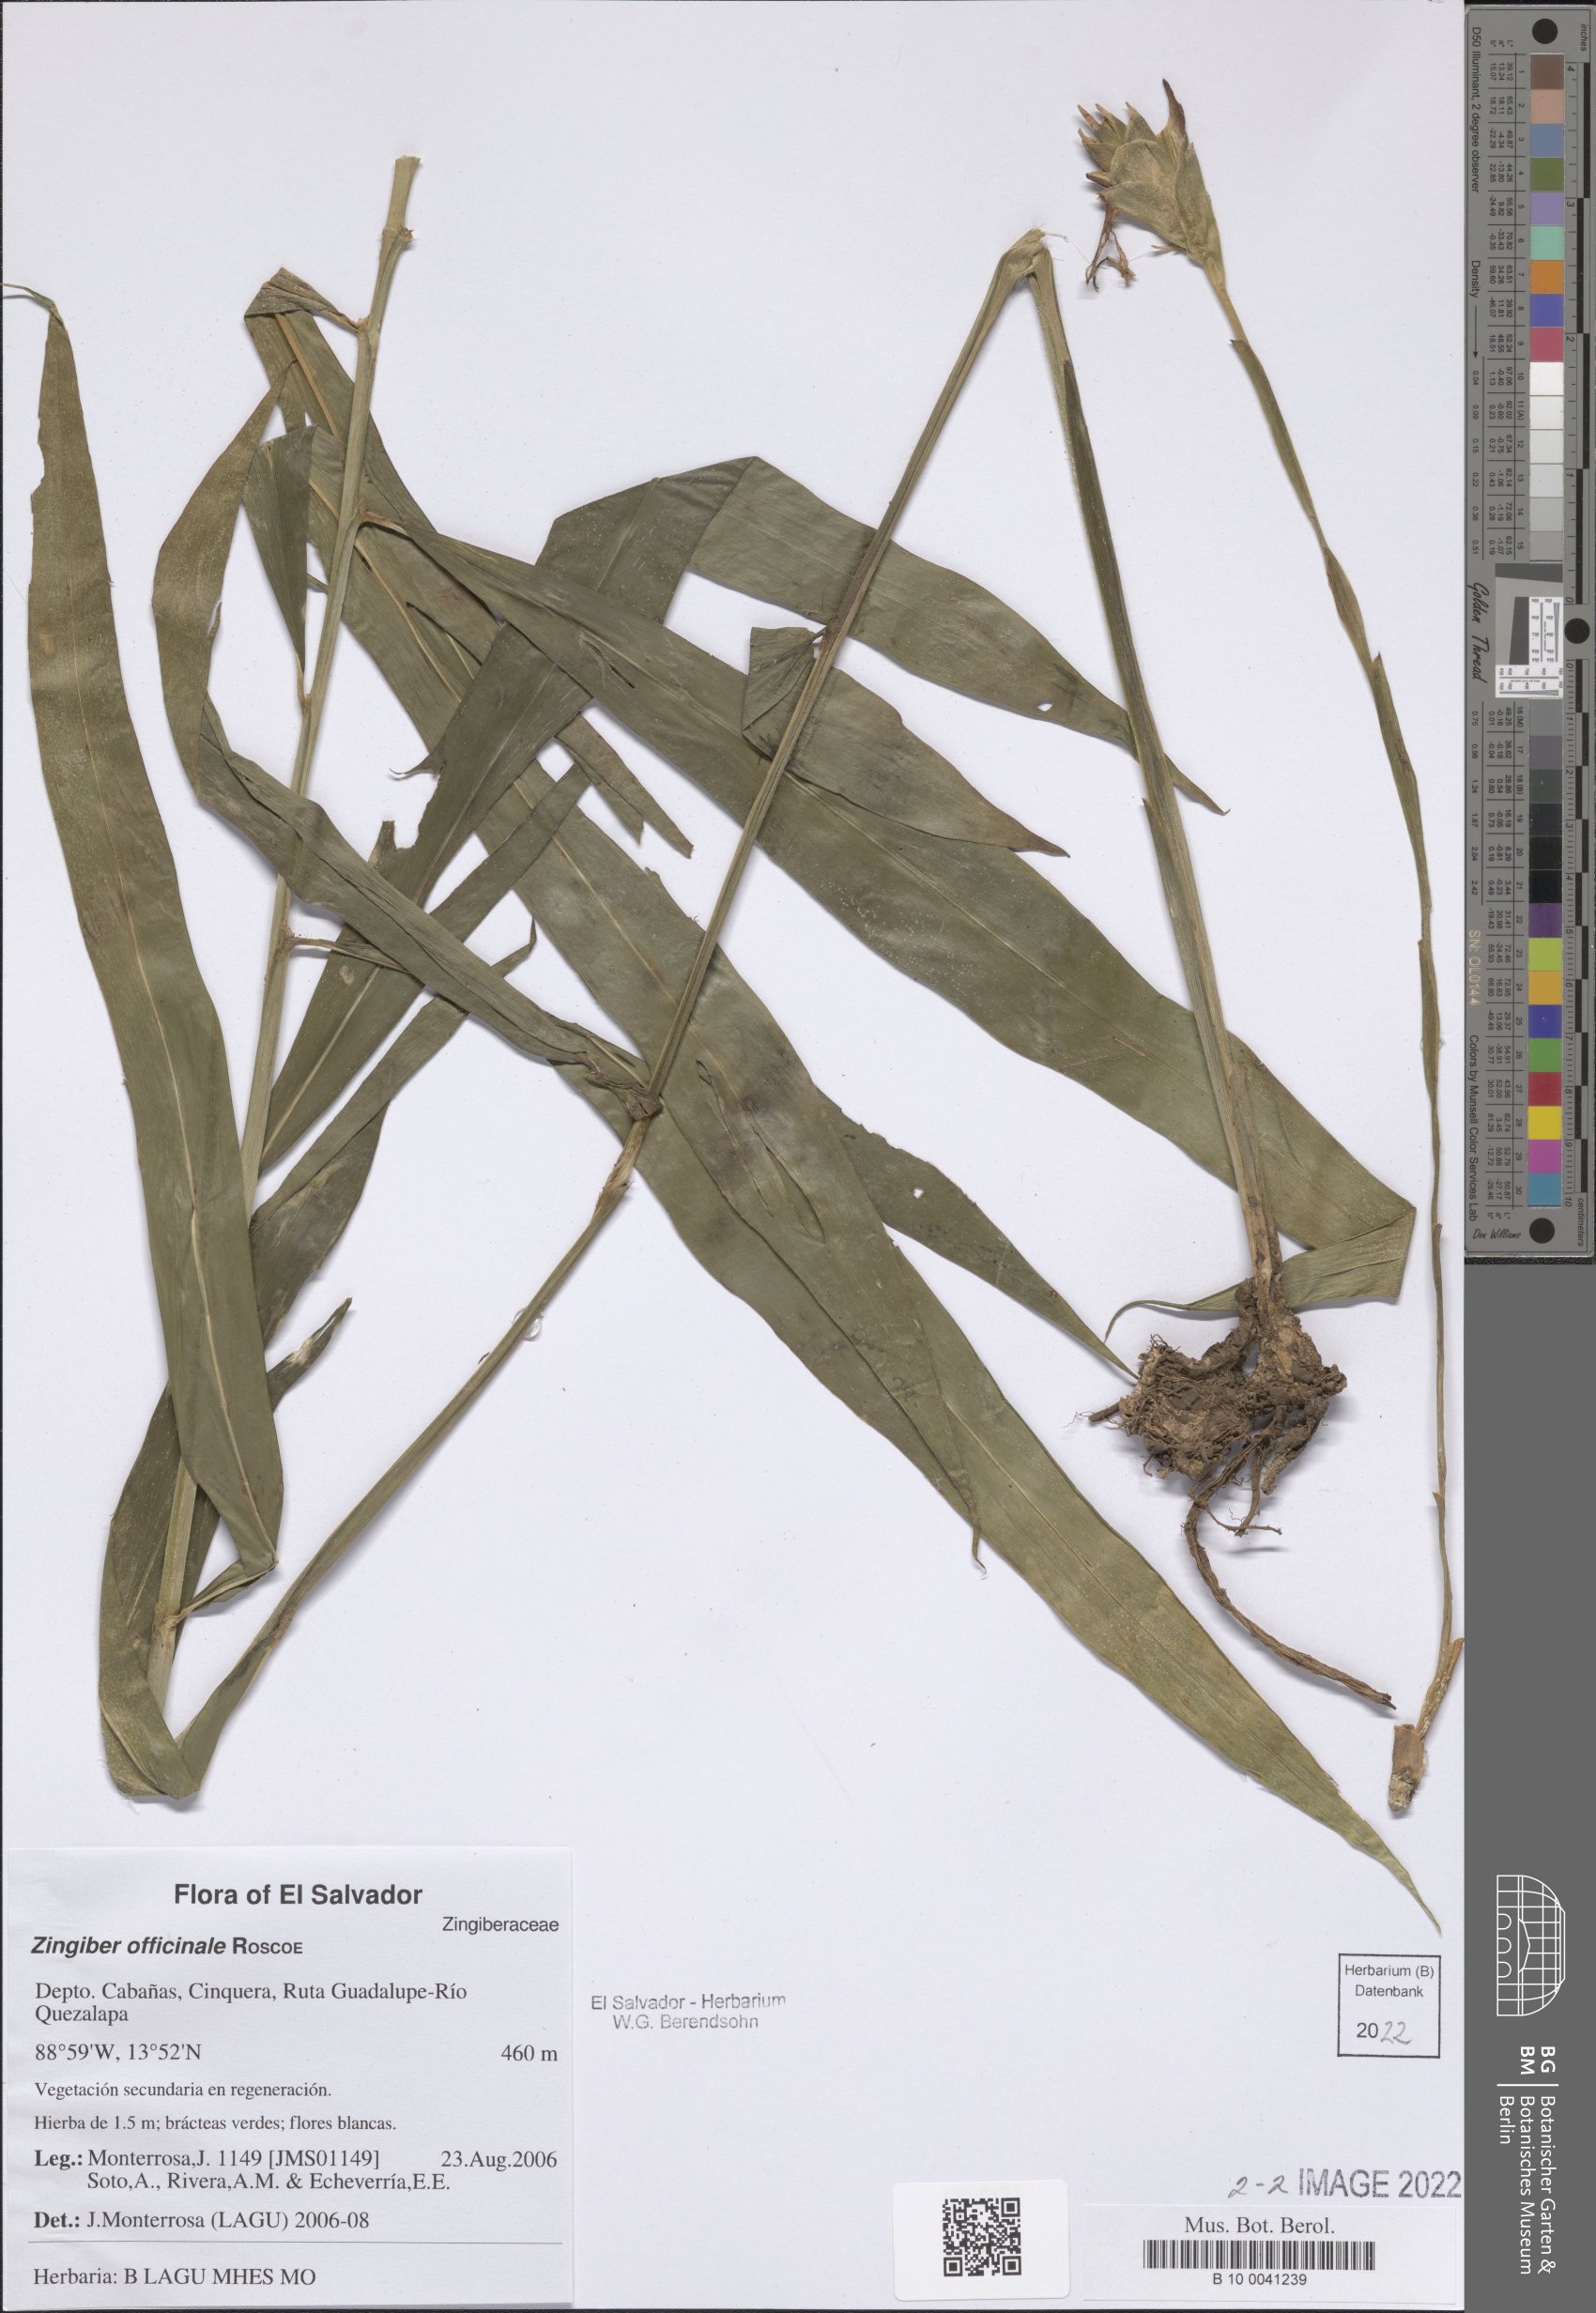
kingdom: Plantae
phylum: Tracheophyta
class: Liliopsida
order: Zingiberales
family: Zingiberaceae
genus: Zingiber
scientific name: Zingiber officinale
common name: Ginger
